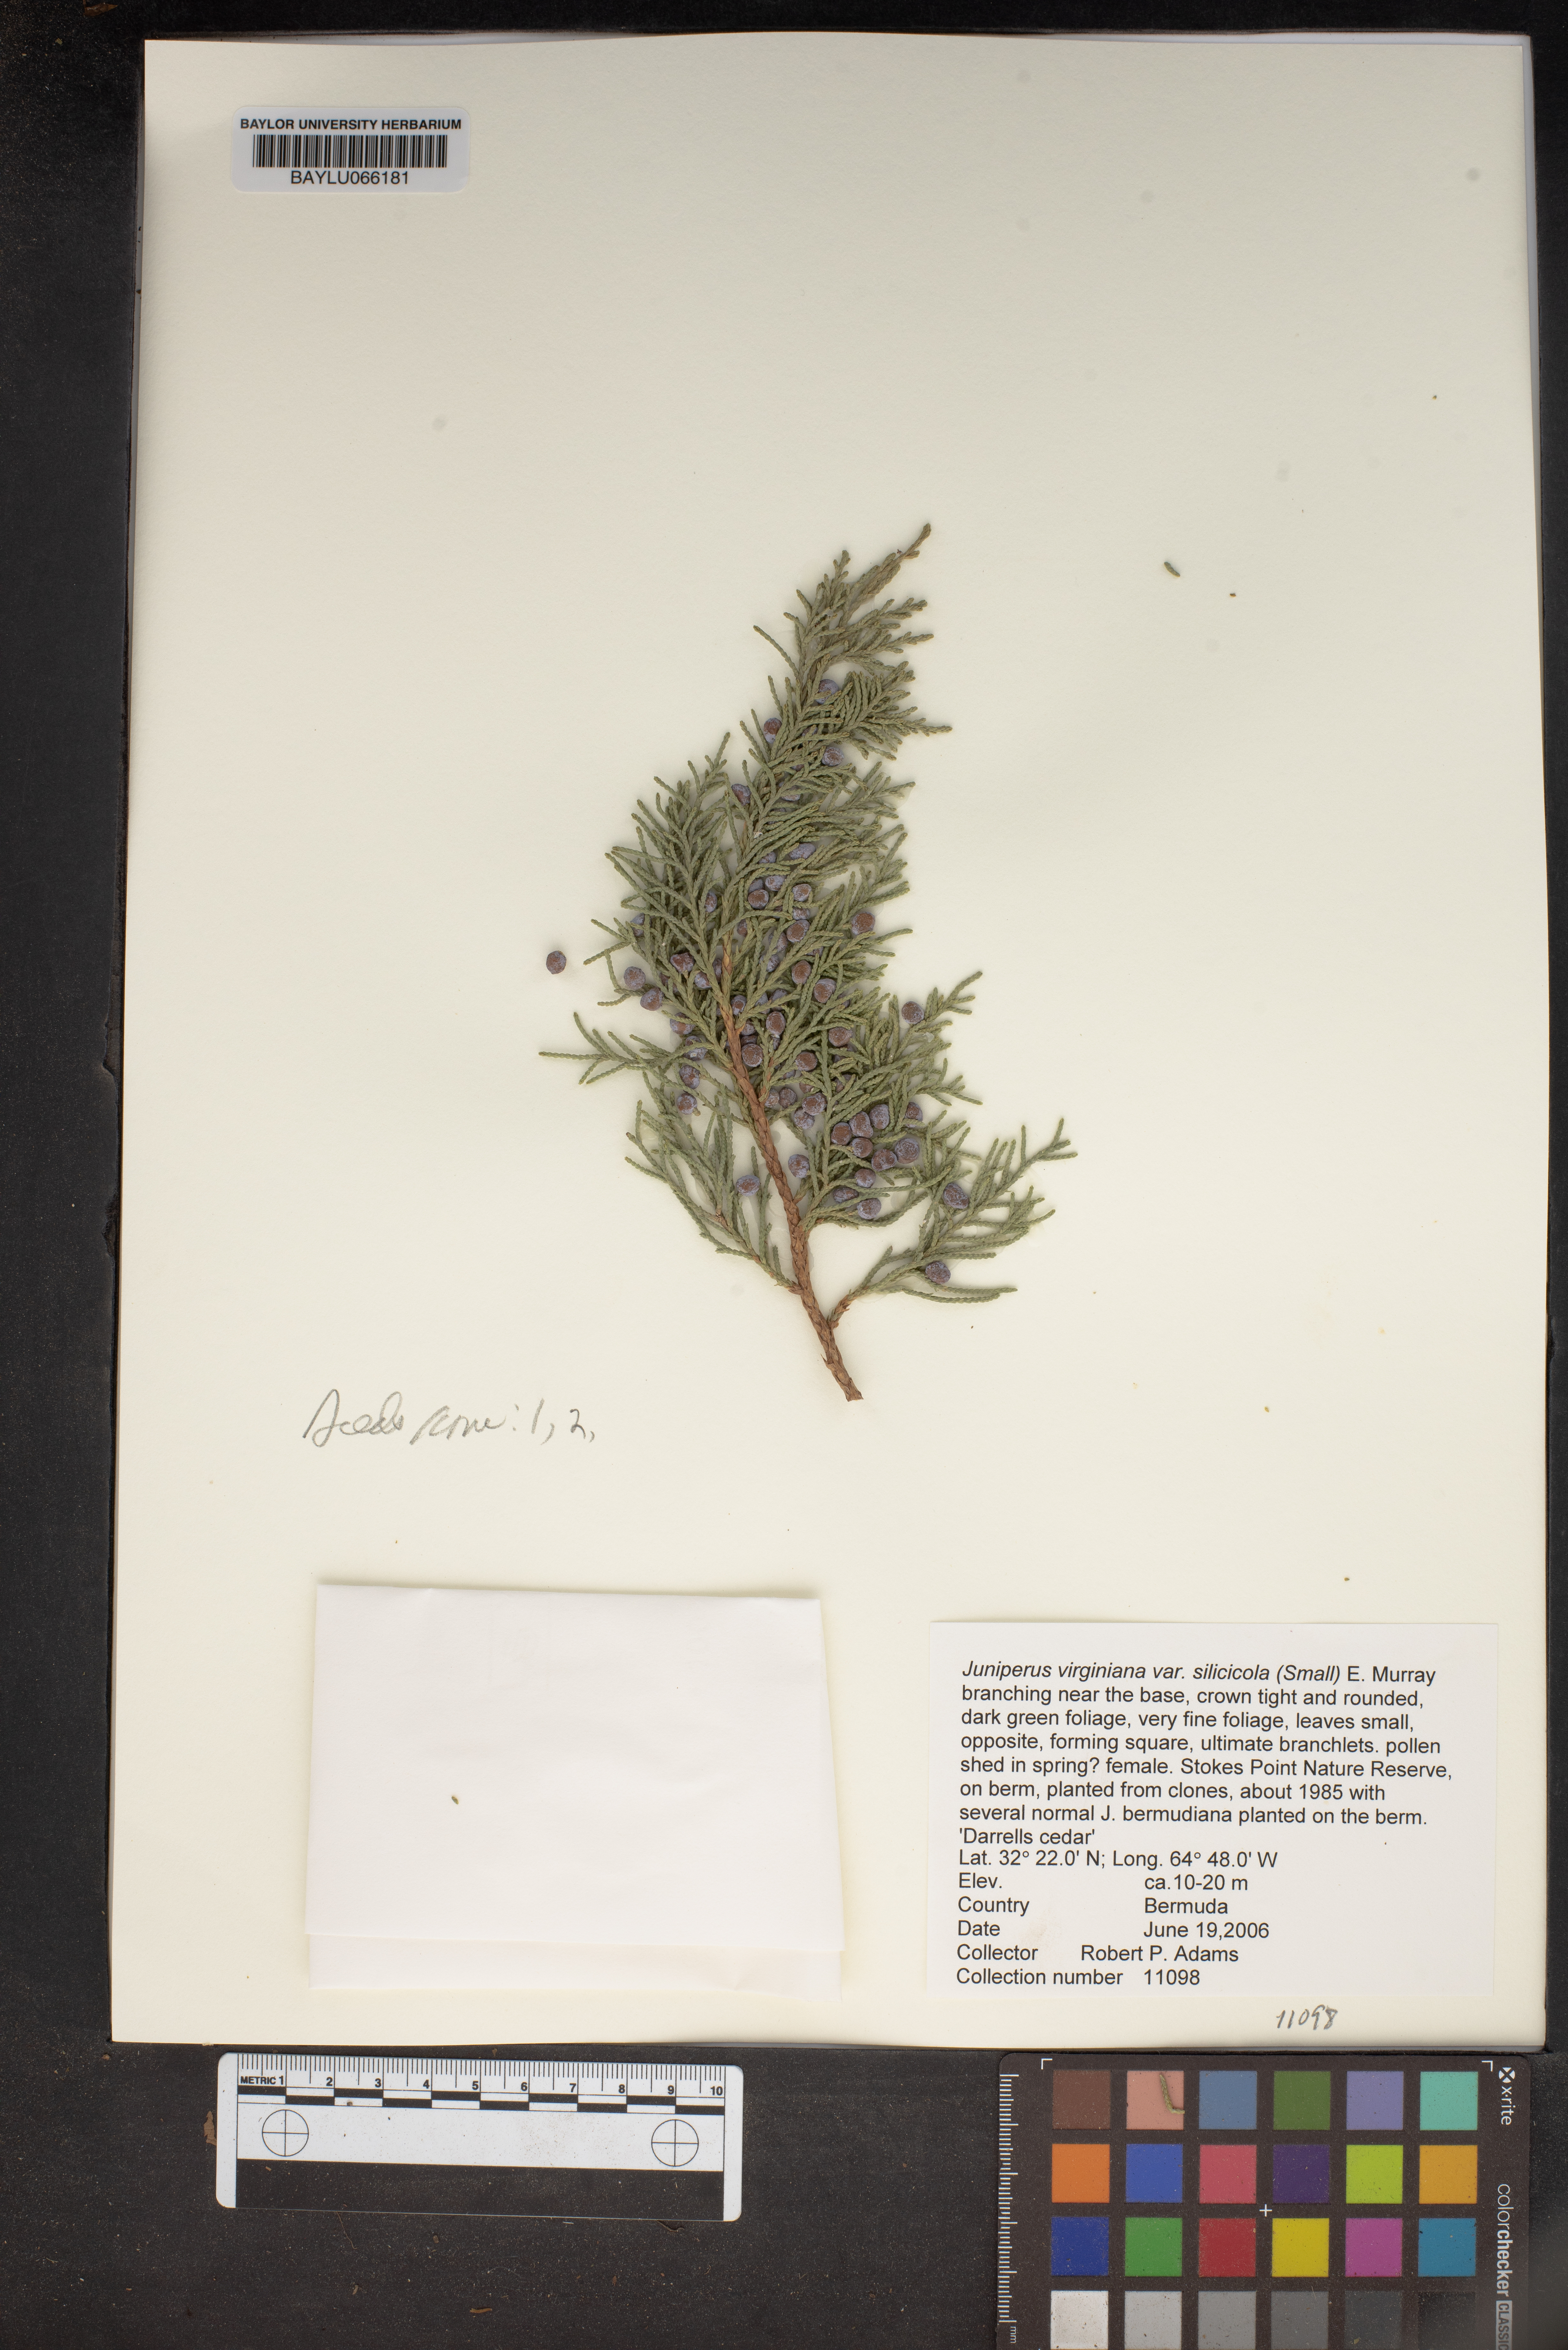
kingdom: Plantae
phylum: Tracheophyta
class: Pinopsida
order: Pinales
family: Cupressaceae
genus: Juniperus
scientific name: Juniperus virginiana
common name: Red juniper
